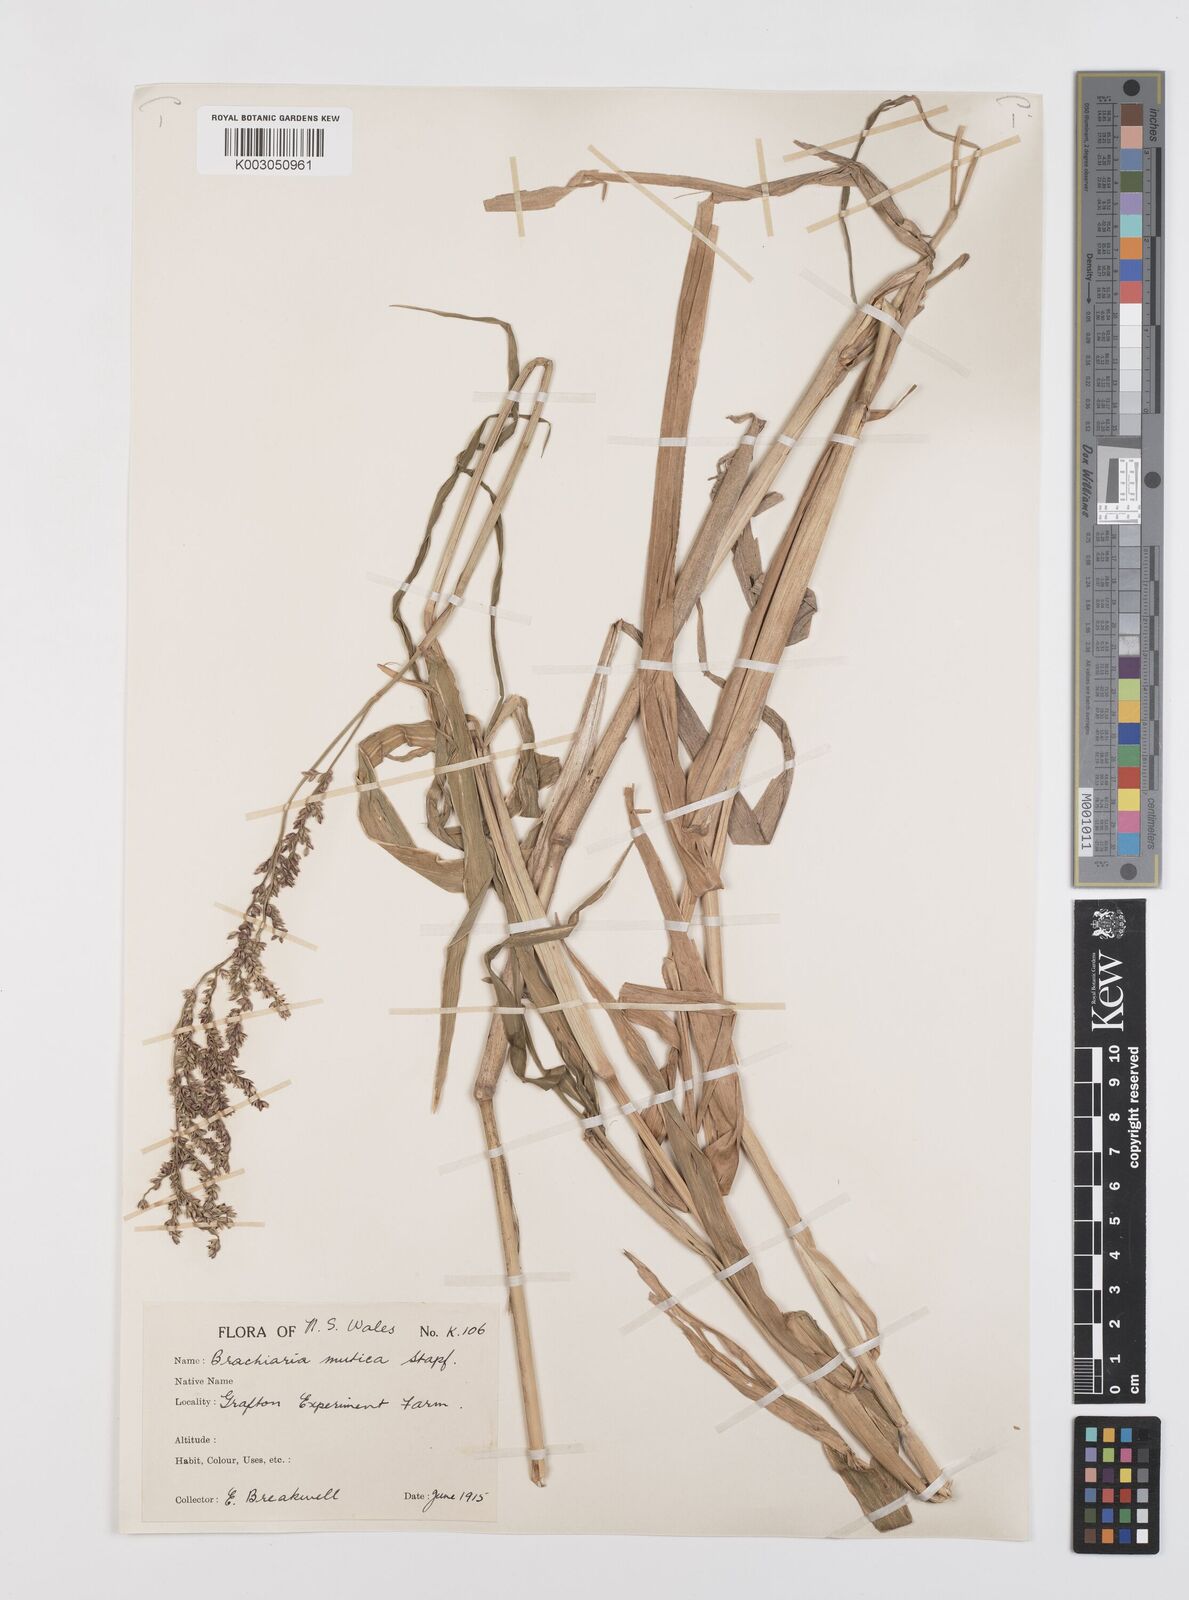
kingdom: Plantae
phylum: Tracheophyta
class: Liliopsida
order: Poales
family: Poaceae
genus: Urochloa
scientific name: Urochloa mutica
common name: Para grass
